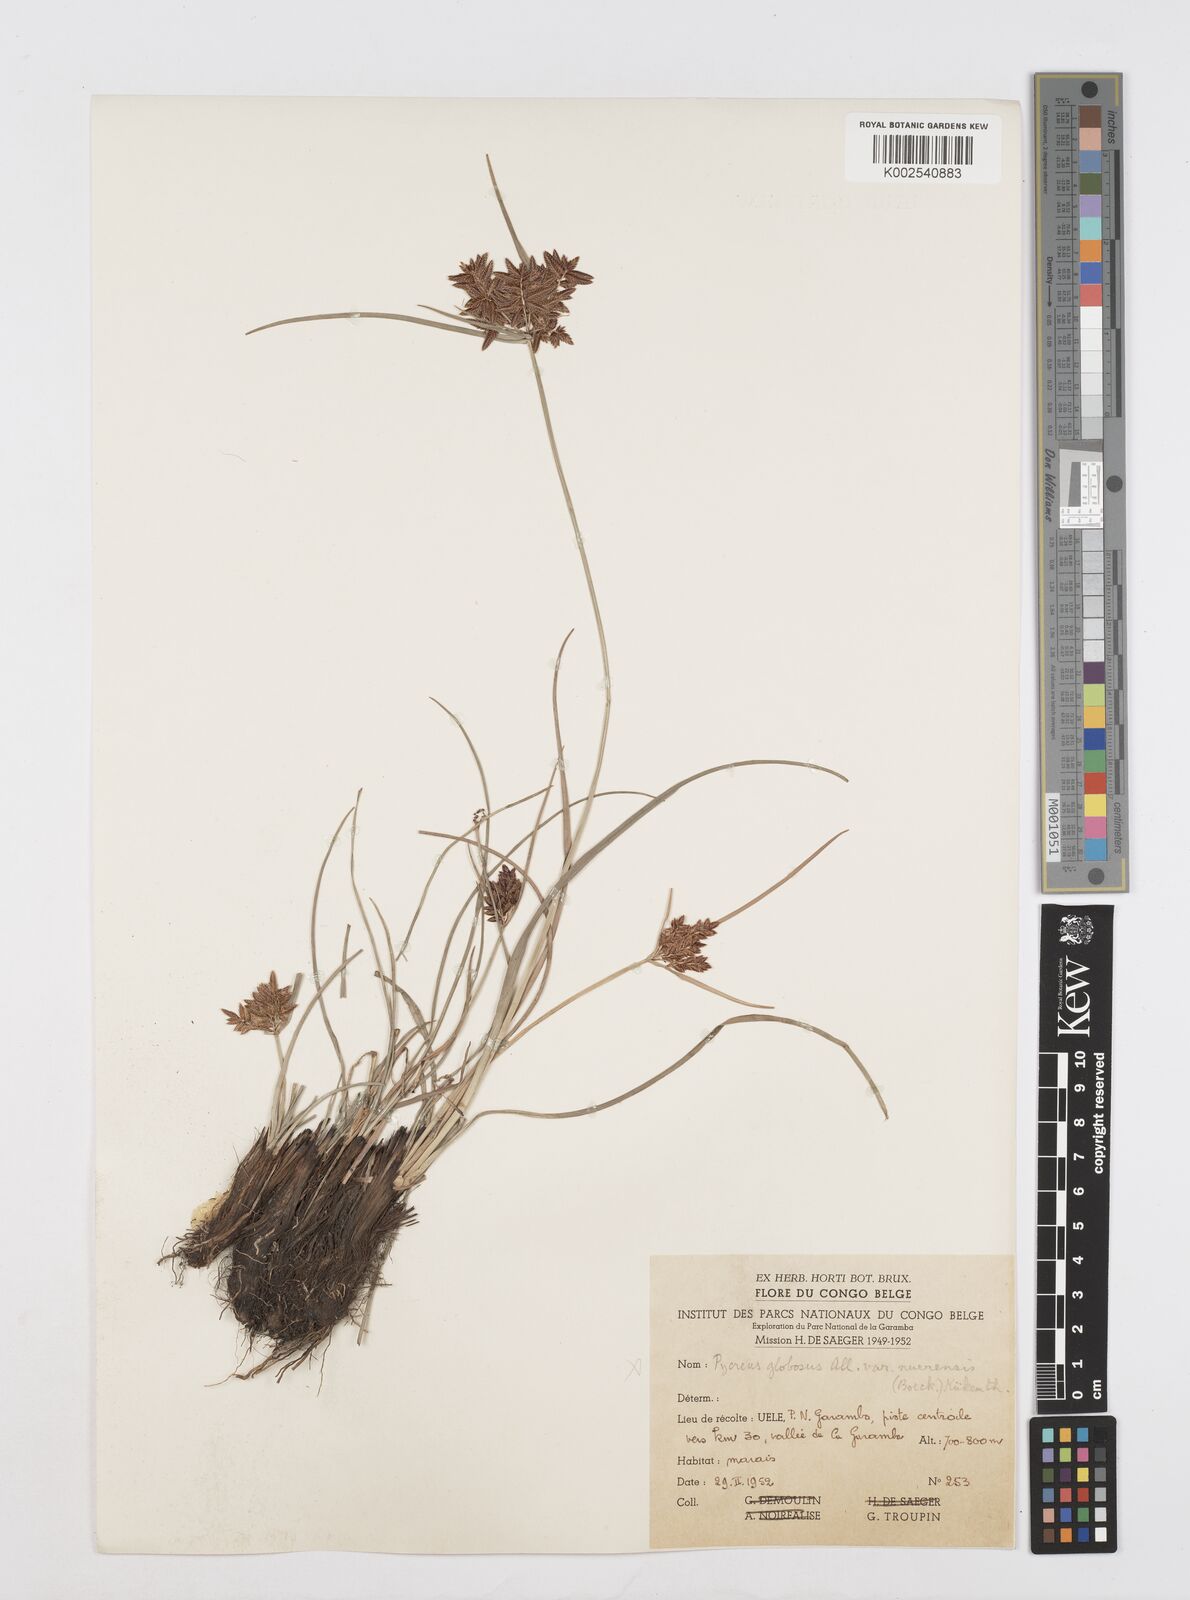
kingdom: Plantae
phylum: Tracheophyta
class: Liliopsida
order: Poales
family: Cyperaceae
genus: Cyperus
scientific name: Cyperus nigricans
